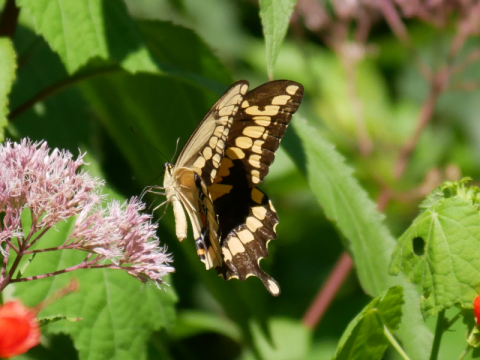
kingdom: Animalia
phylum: Arthropoda
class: Insecta
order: Lepidoptera
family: Papilionidae
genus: Papilio
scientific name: Papilio cresphontes
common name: Eastern Giant Swallowtail
